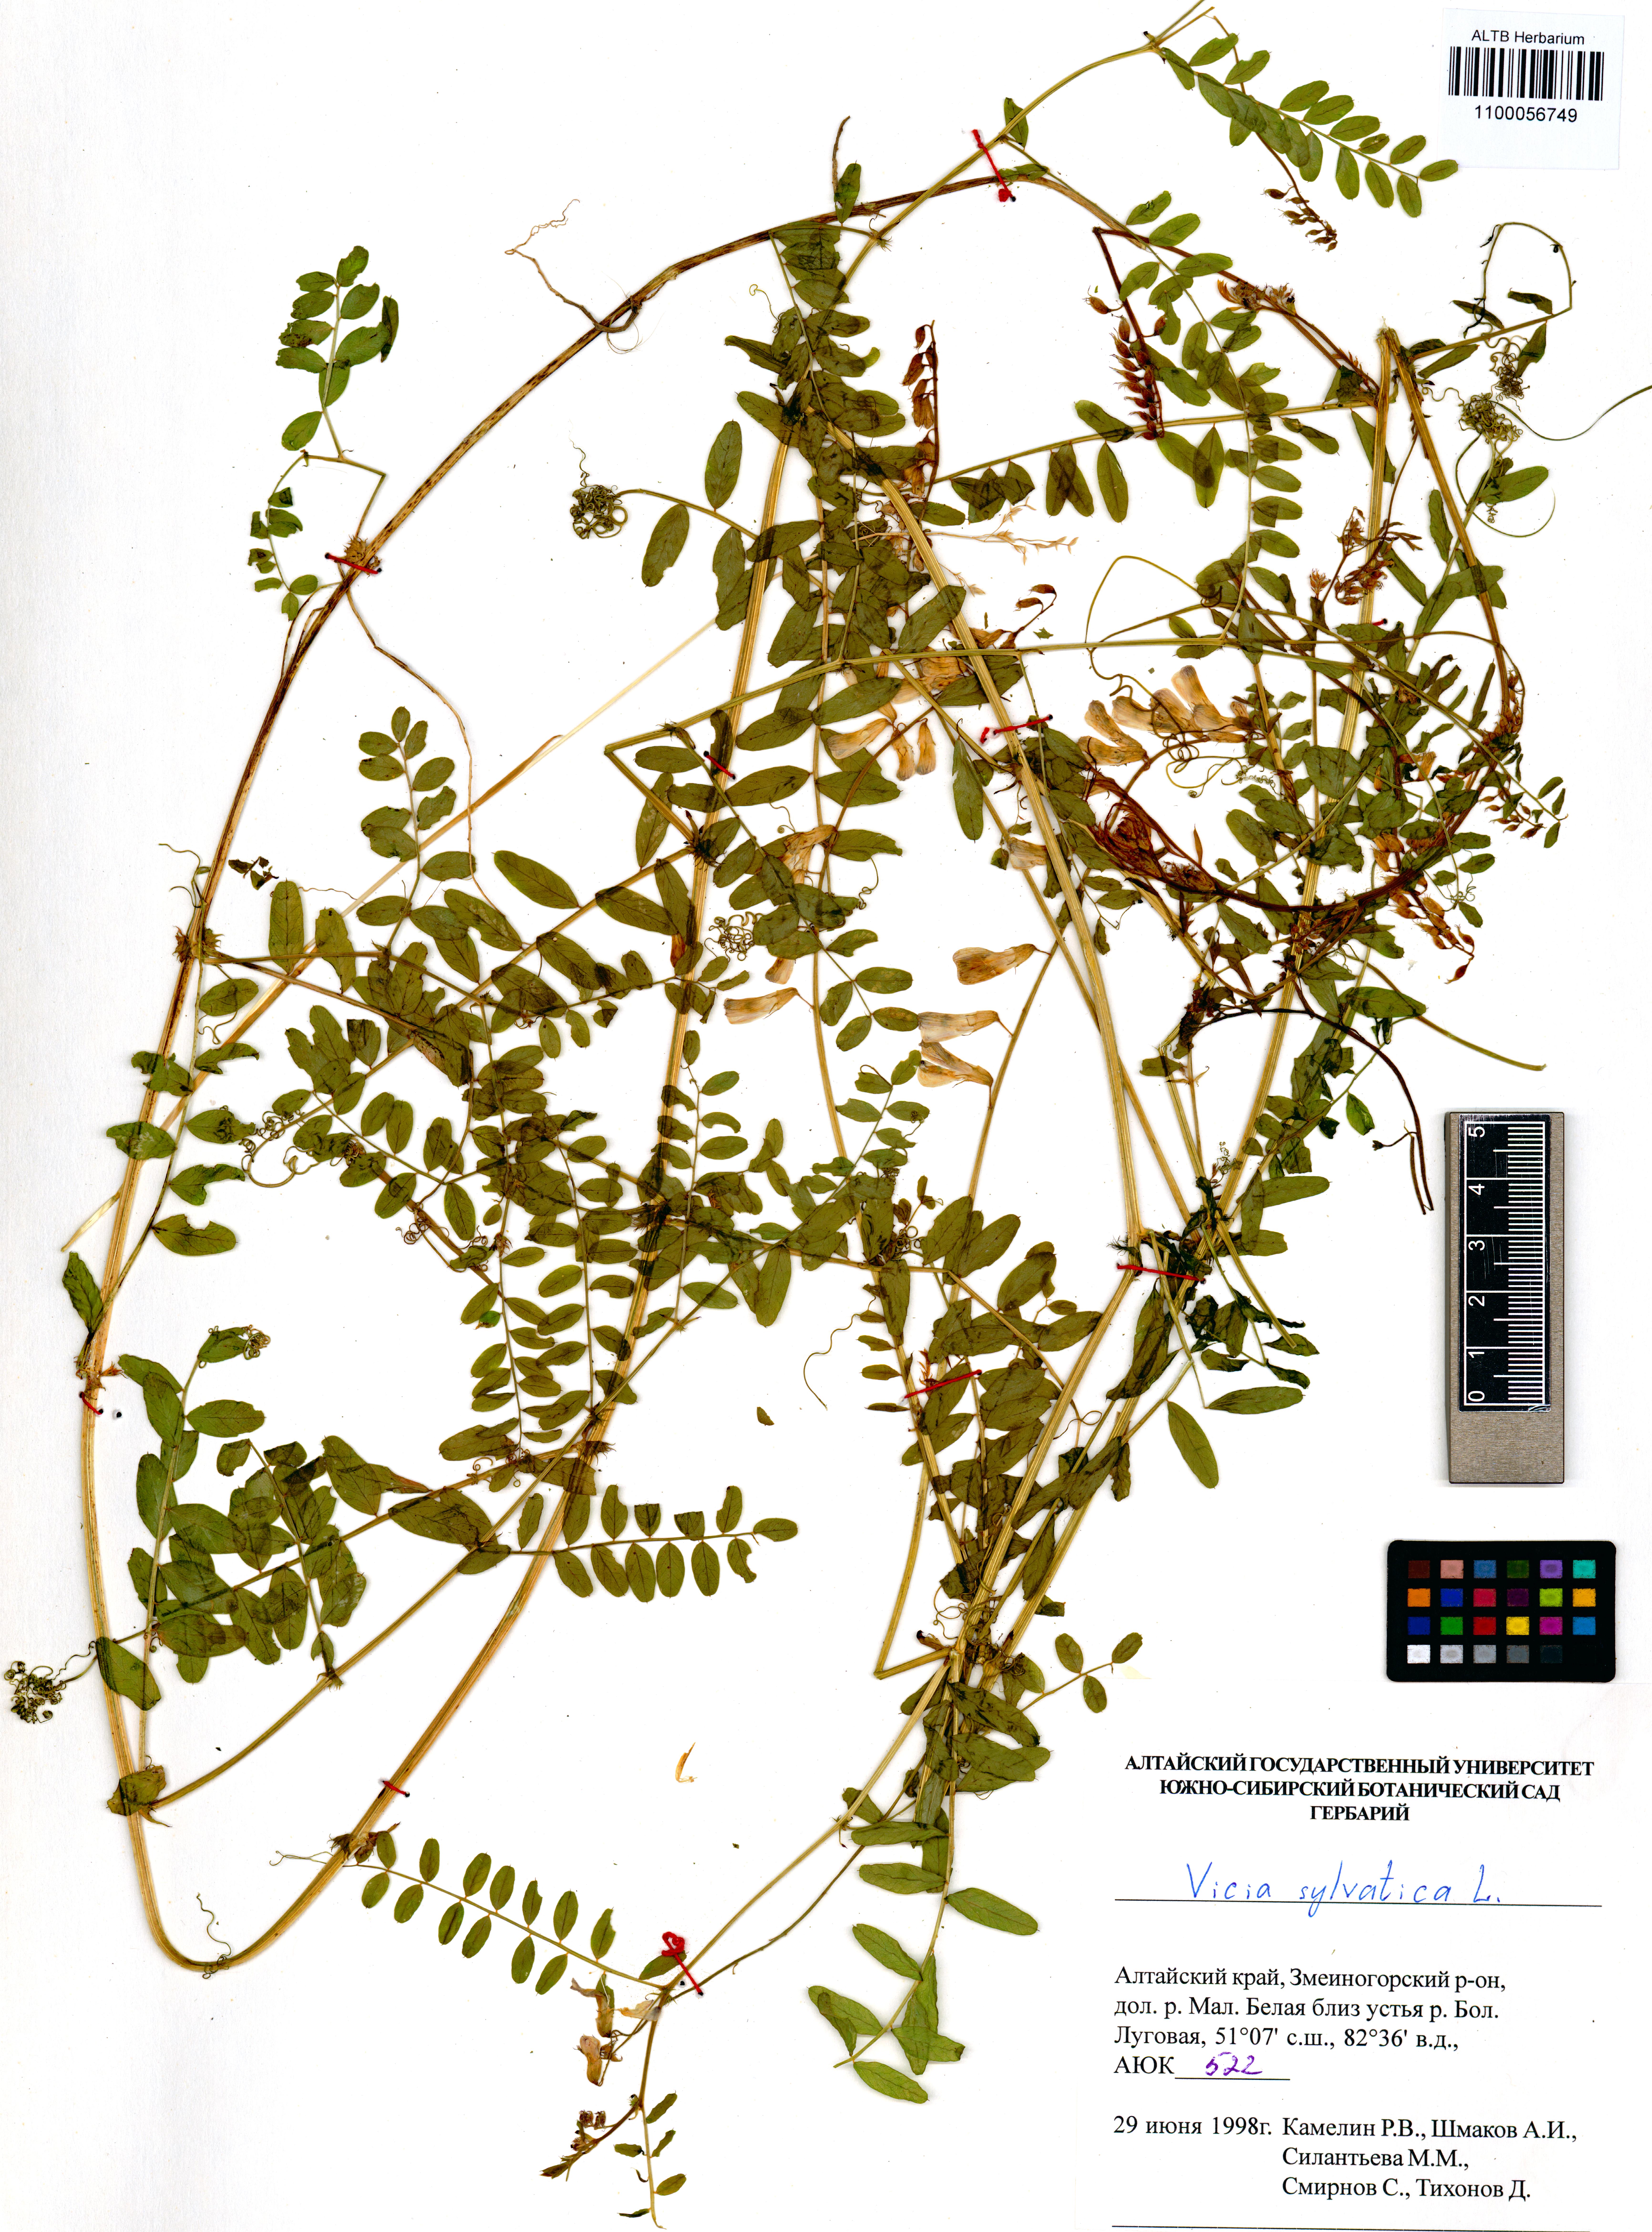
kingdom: Plantae
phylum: Tracheophyta
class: Magnoliopsida
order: Fabales
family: Fabaceae
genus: Vicia
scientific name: Vicia sylvatica
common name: Wood vetch
